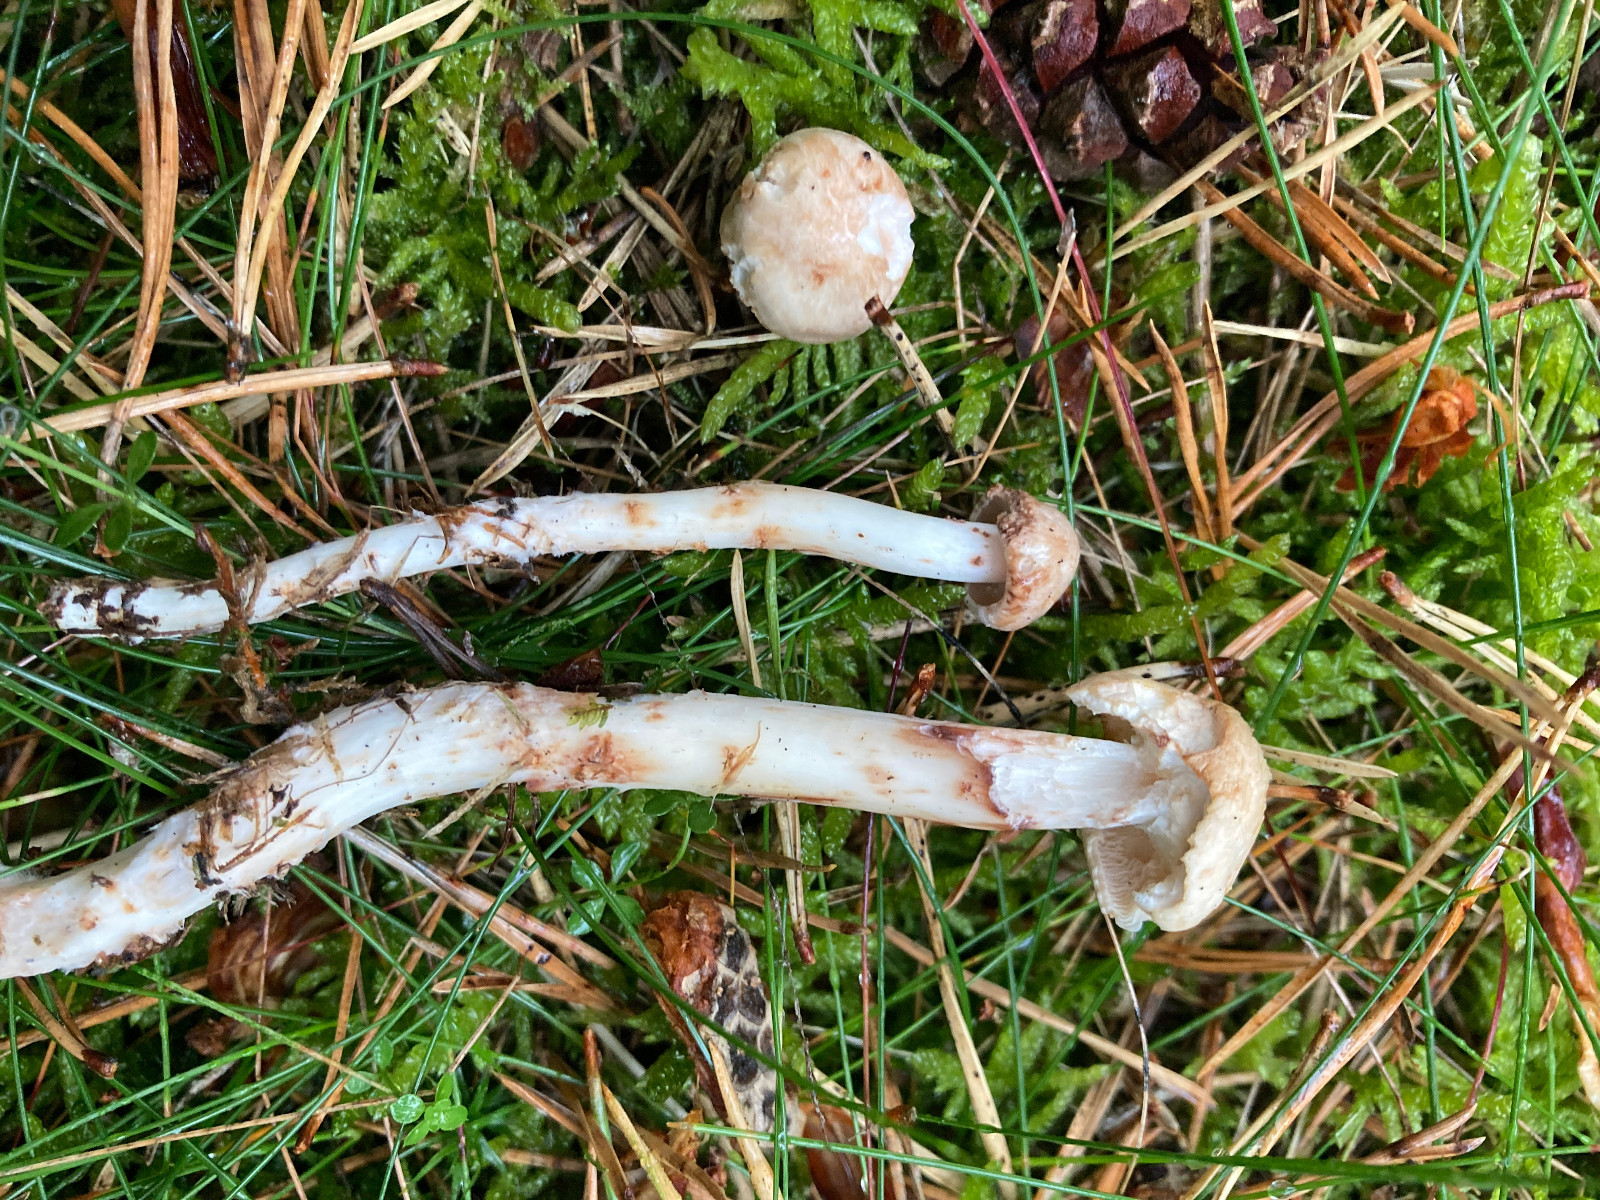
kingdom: Fungi
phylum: Basidiomycota
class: Agaricomycetes
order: Agaricales
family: Omphalotaceae
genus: Rhodocollybia
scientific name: Rhodocollybia maculata
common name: plettet fladhat
